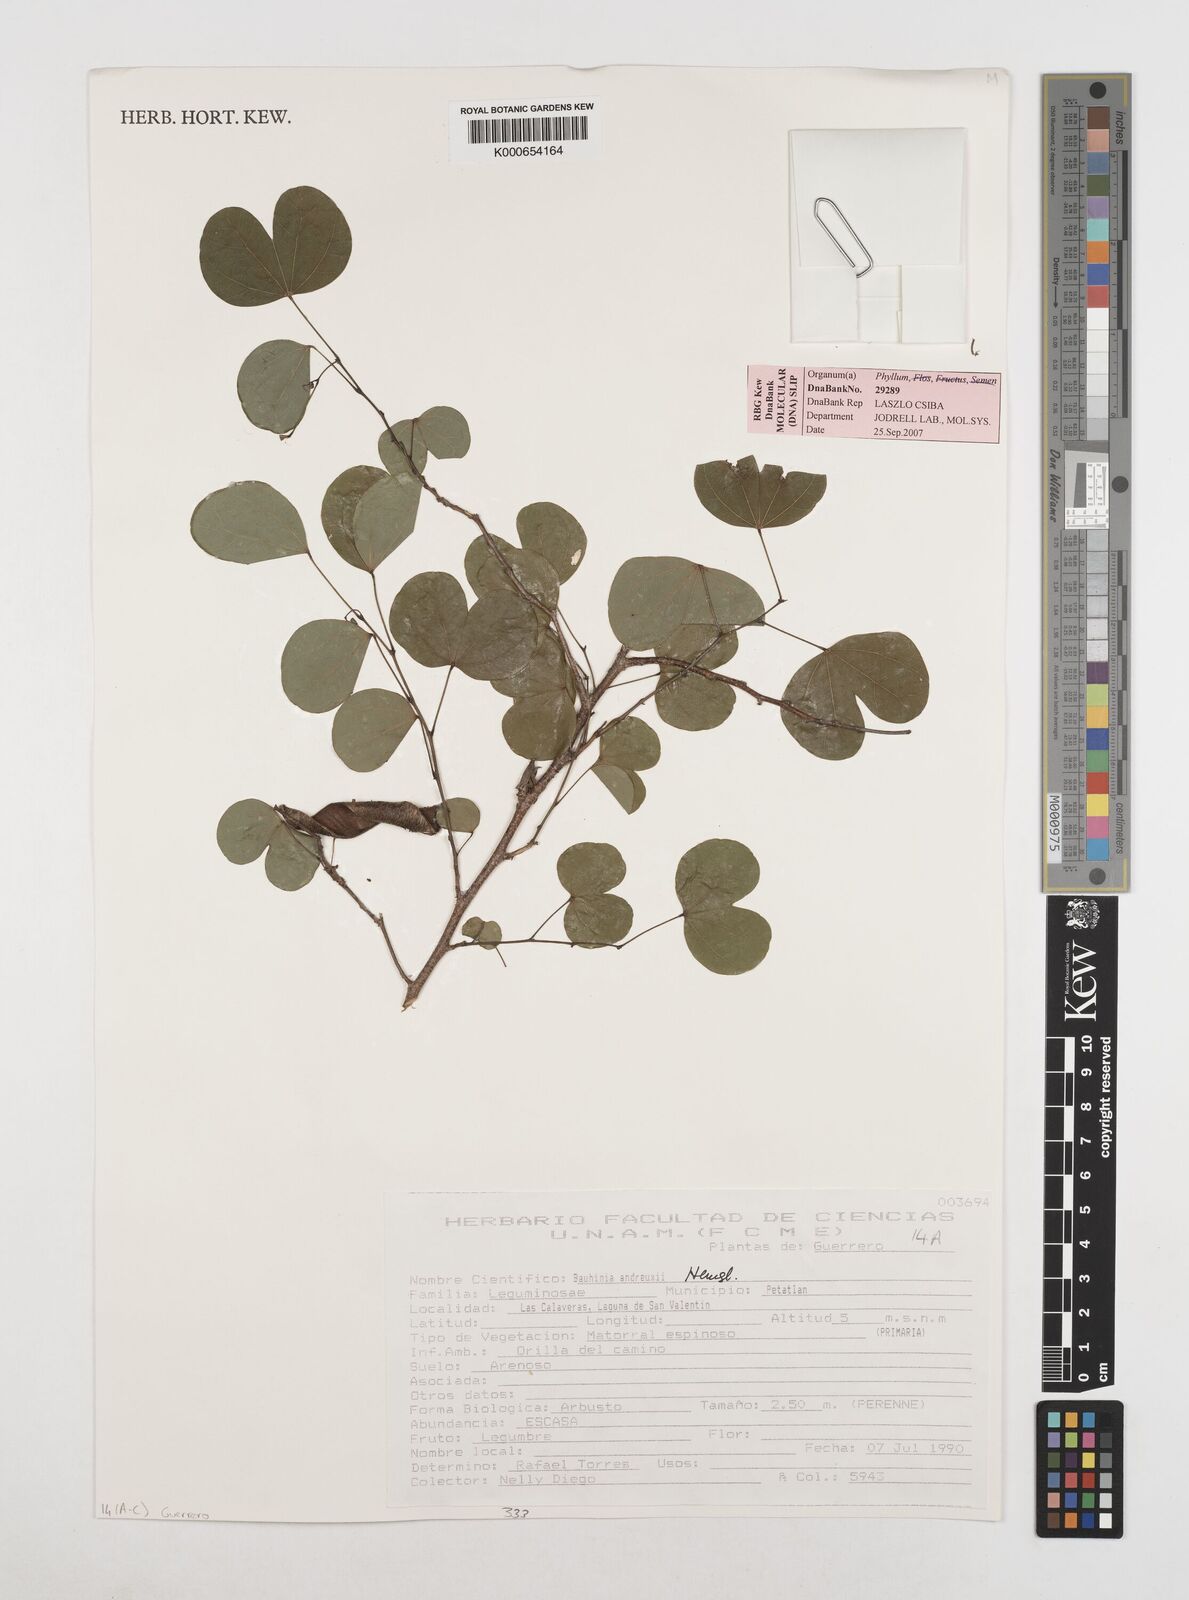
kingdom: Plantae
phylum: Tracheophyta
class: Magnoliopsida
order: Fabales
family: Fabaceae
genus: Bauhinia
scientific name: Bauhinia
